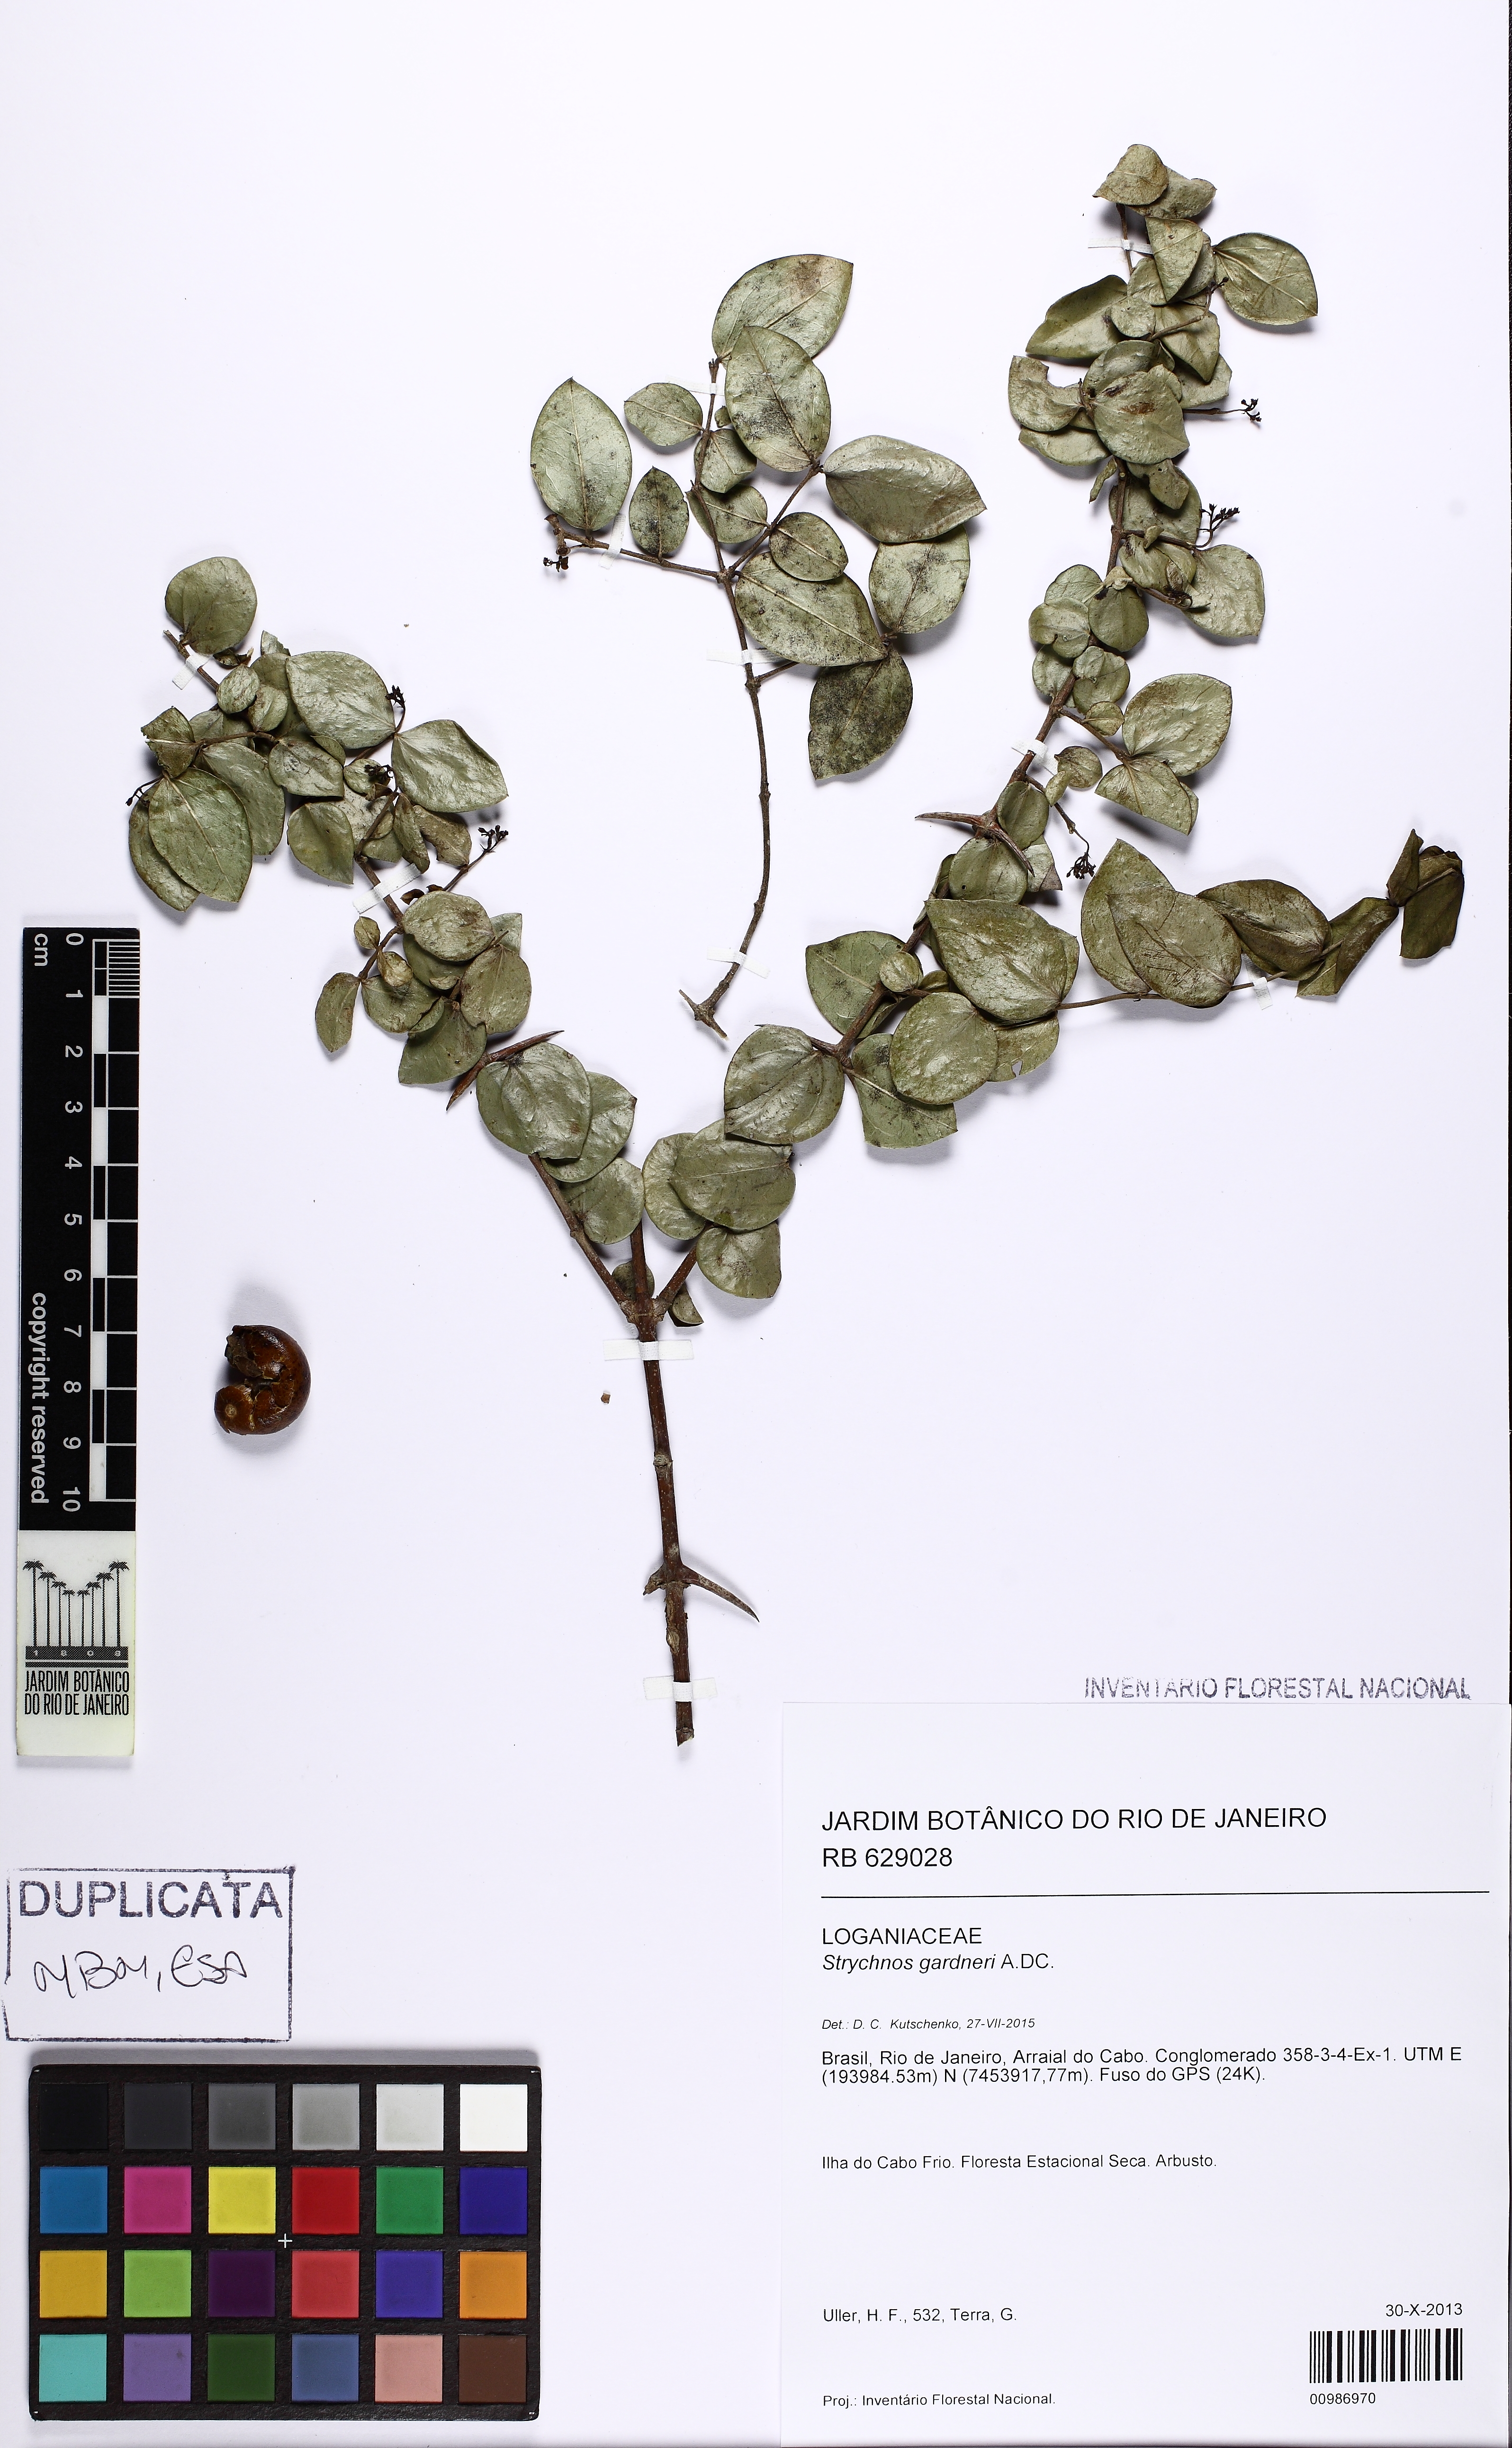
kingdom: Plantae
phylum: Tracheophyta
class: Magnoliopsida
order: Gentianales
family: Loganiaceae
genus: Strychnos
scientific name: Strychnos gardneri
